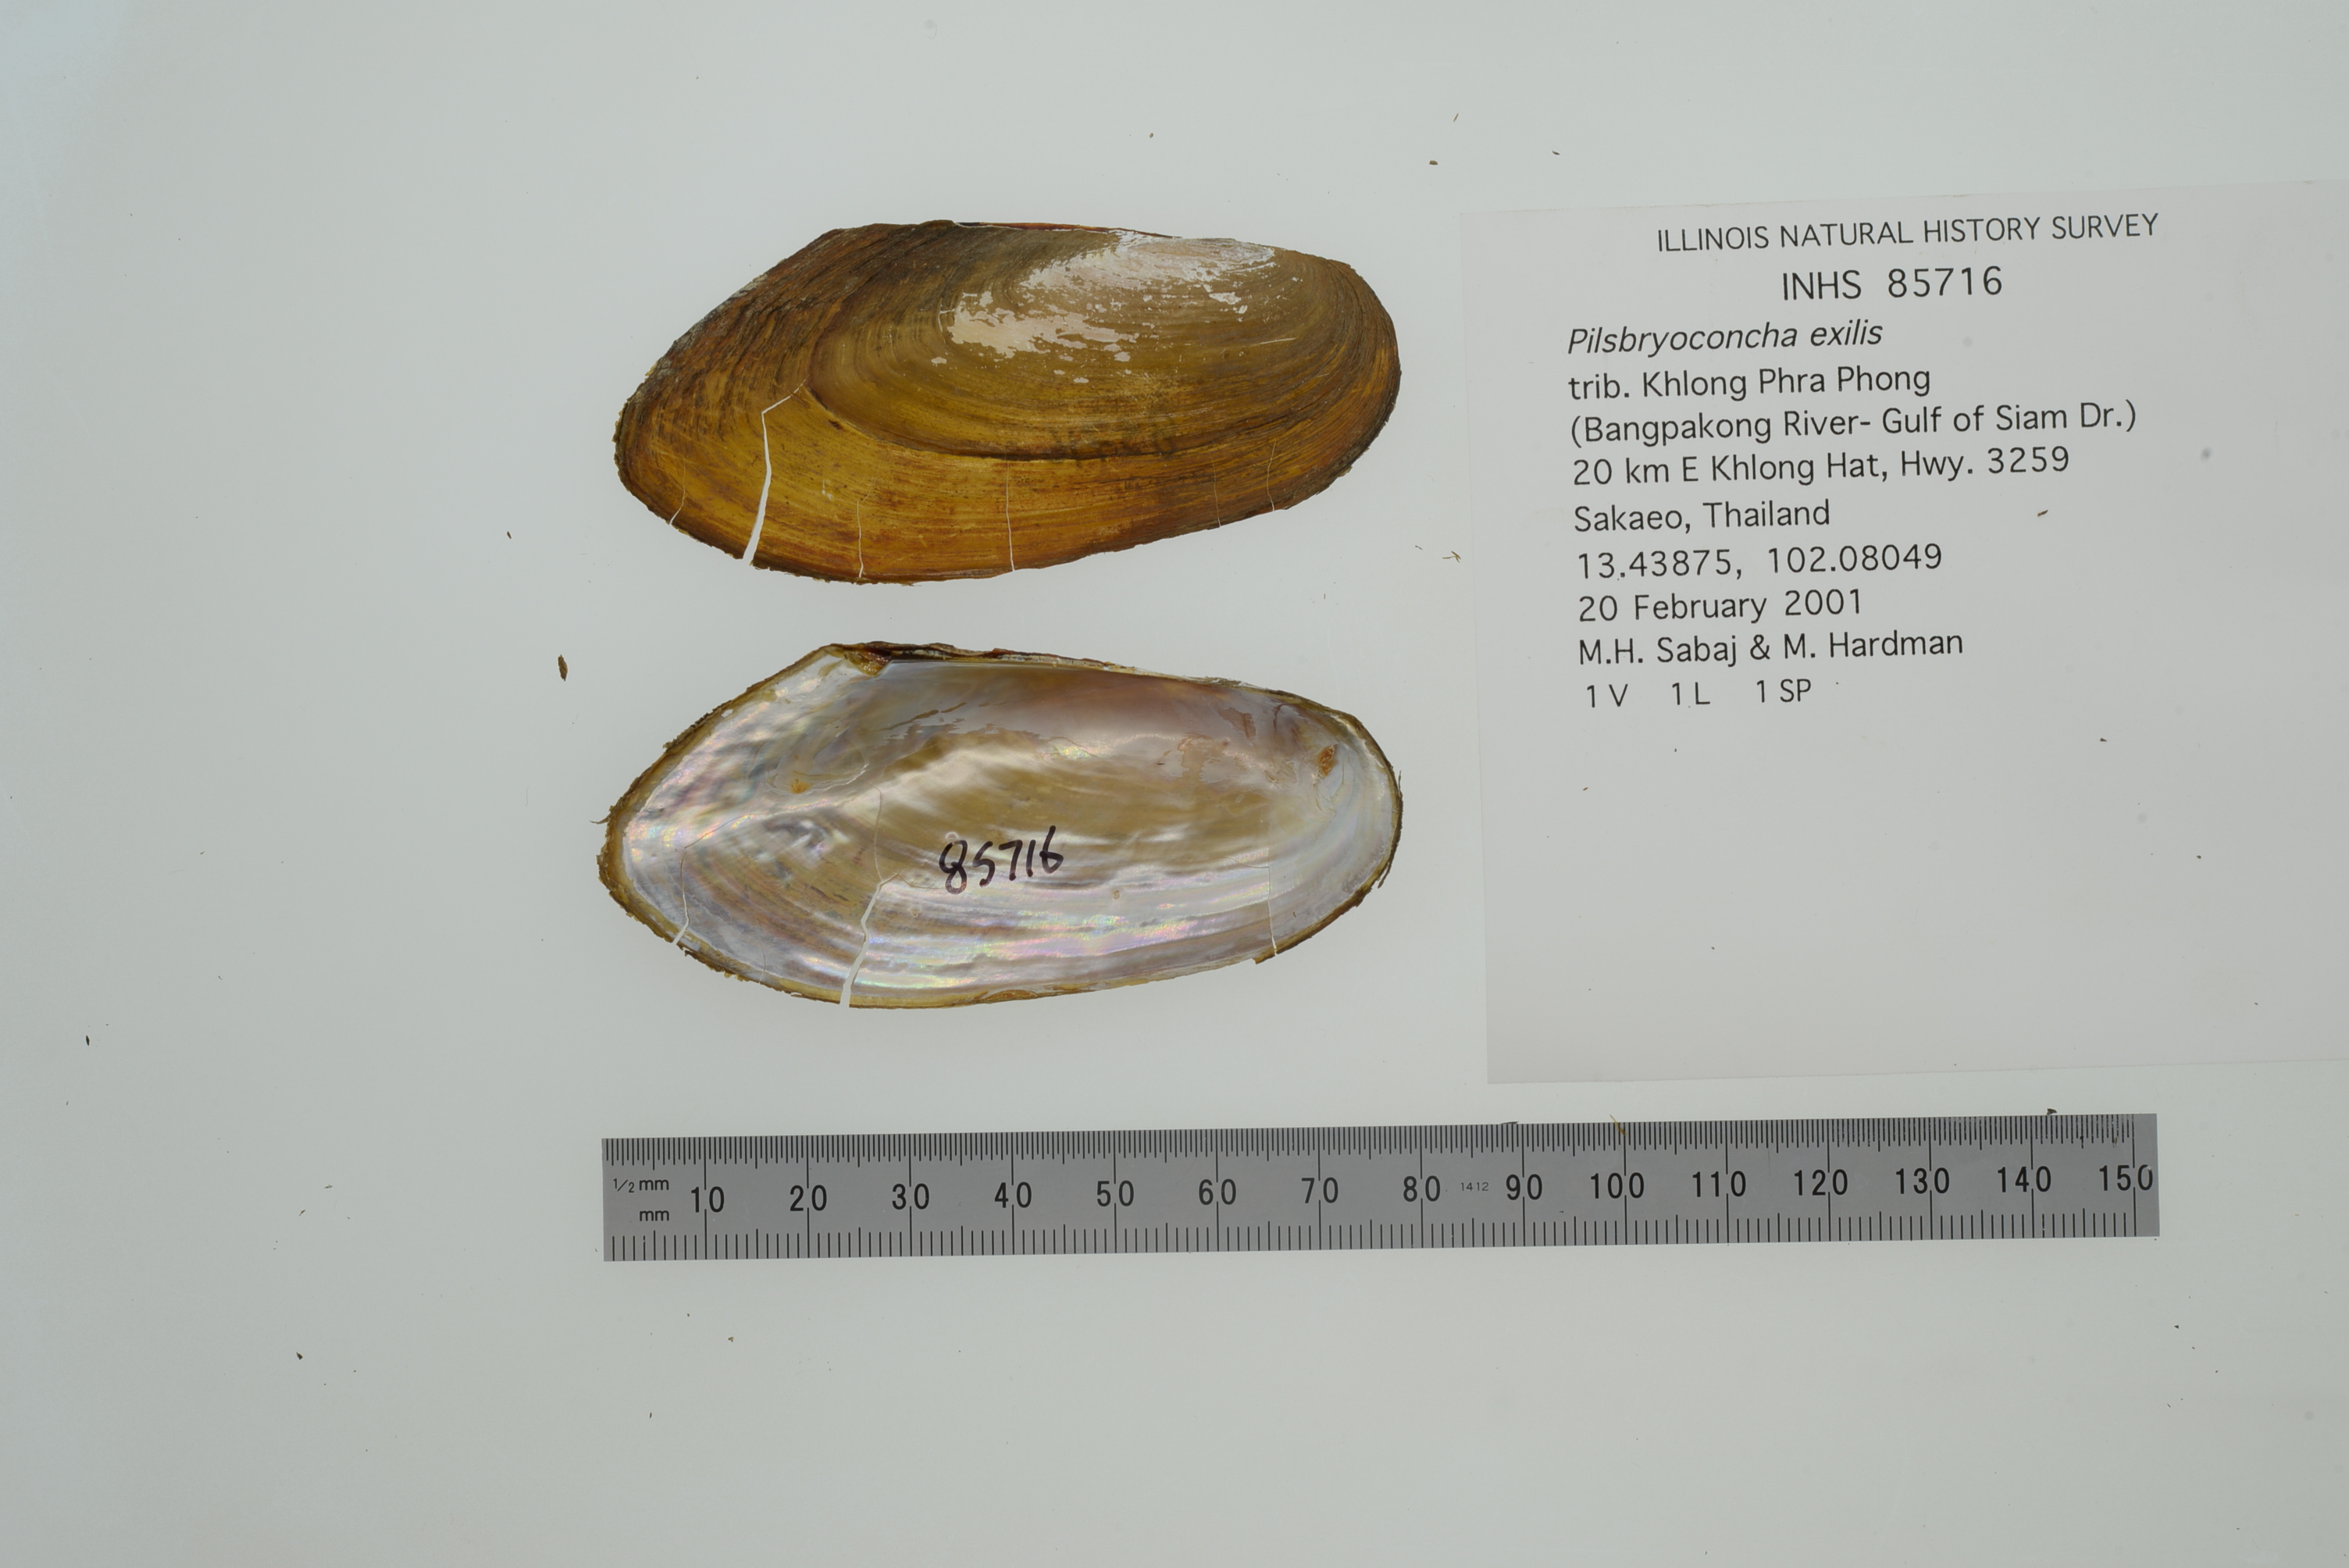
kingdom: Animalia
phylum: Mollusca
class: Bivalvia
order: Unionida
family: Unionidae
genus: Pilsbryoconcha
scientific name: Pilsbryoconcha exilis
